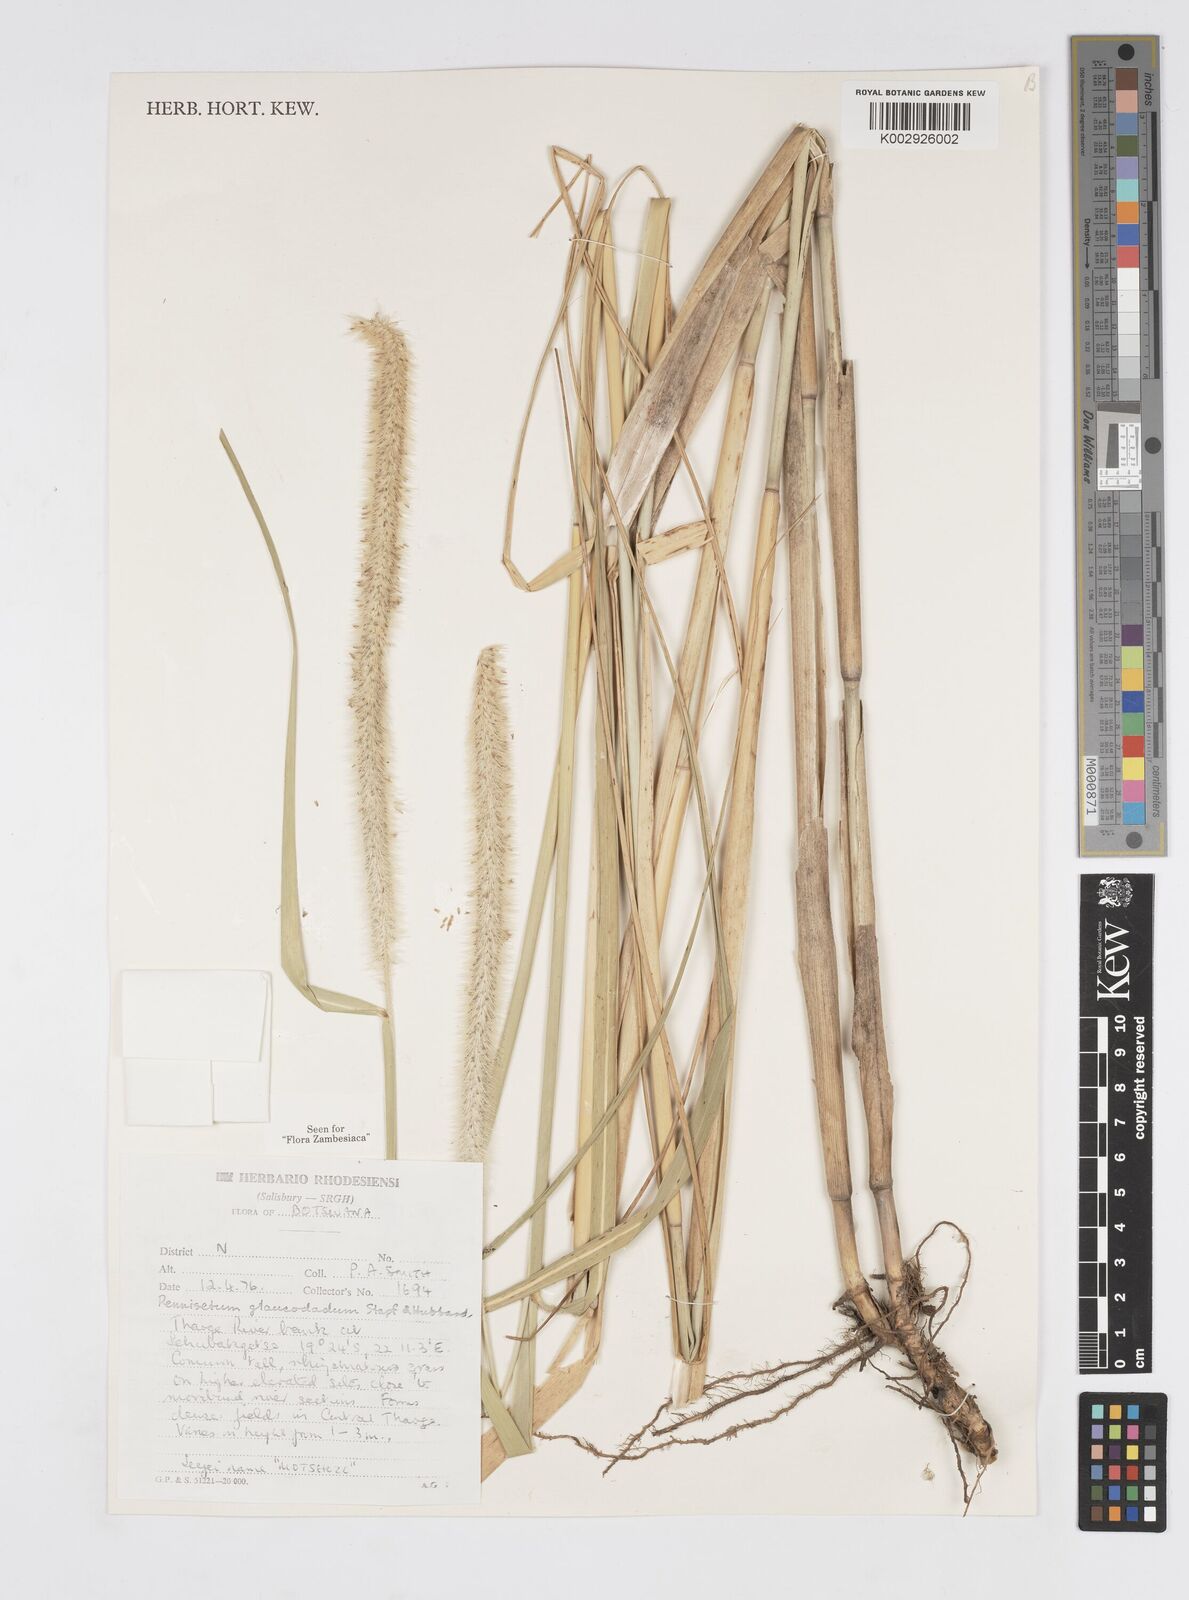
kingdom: Plantae
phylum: Tracheophyta
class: Liliopsida
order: Poales
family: Poaceae
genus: Cenchrus
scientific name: Cenchrus caudatus
